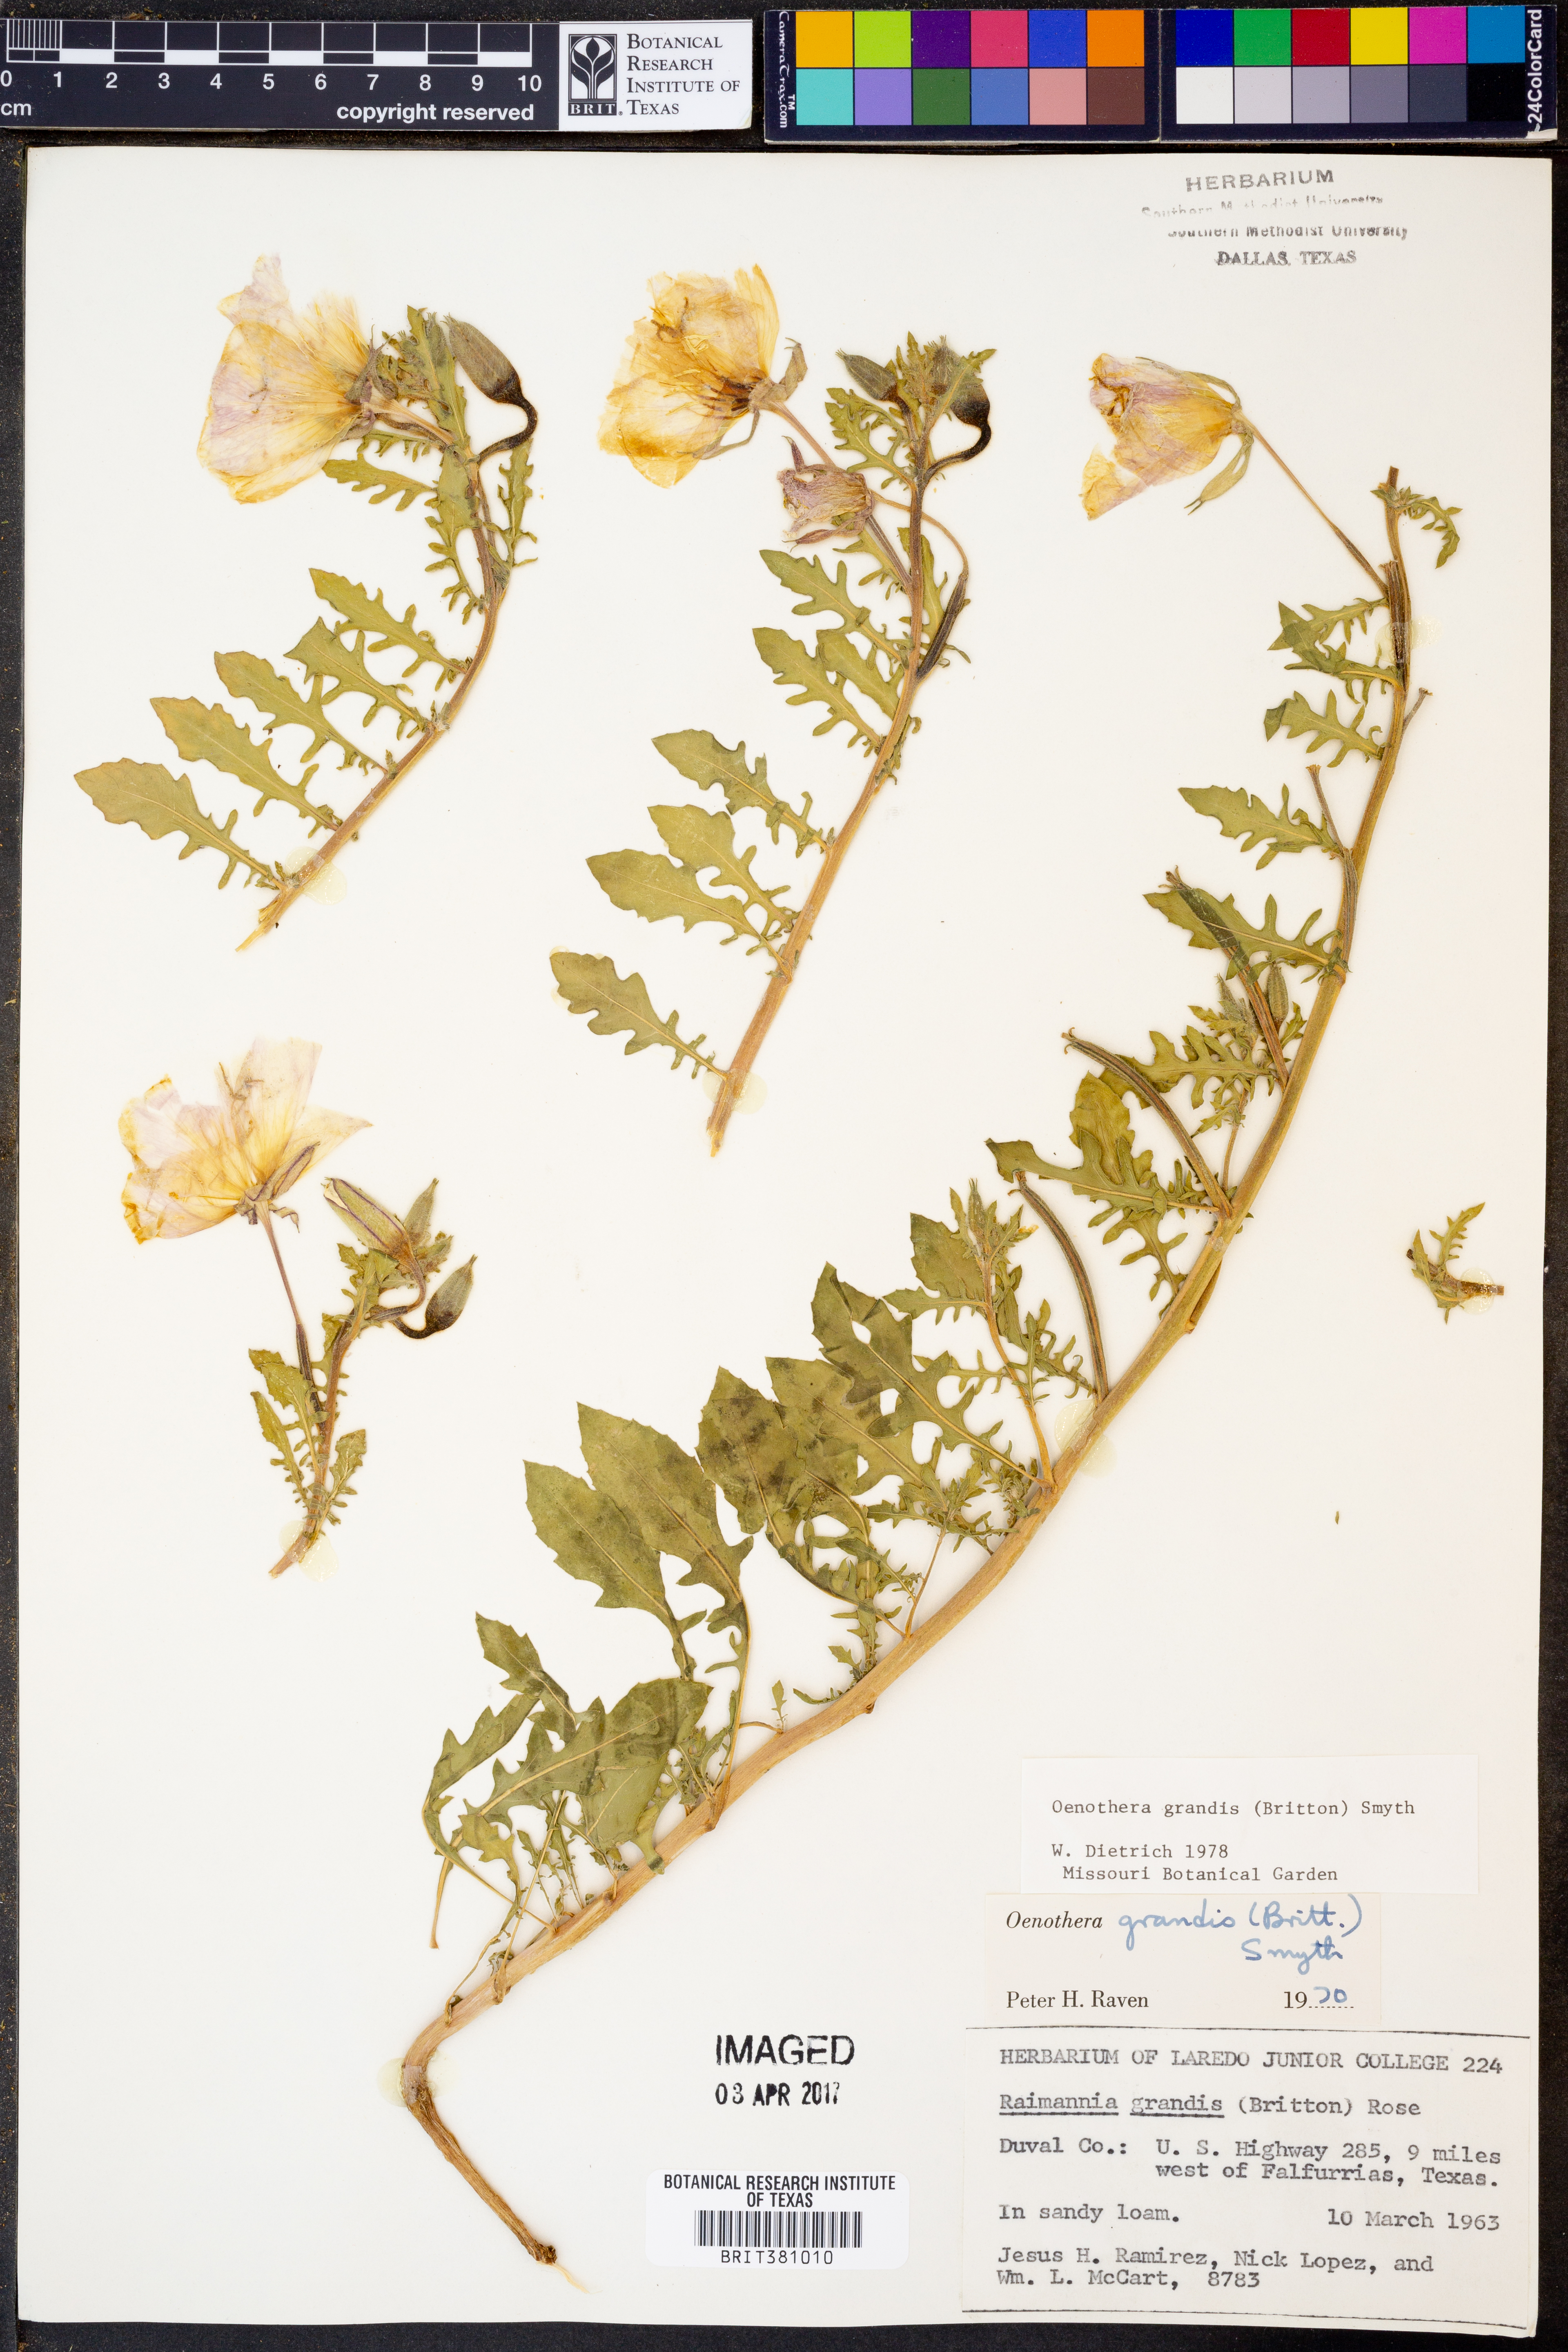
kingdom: Plantae
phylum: Tracheophyta
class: Magnoliopsida
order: Myrtales
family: Onagraceae
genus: Oenothera
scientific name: Oenothera grandis
